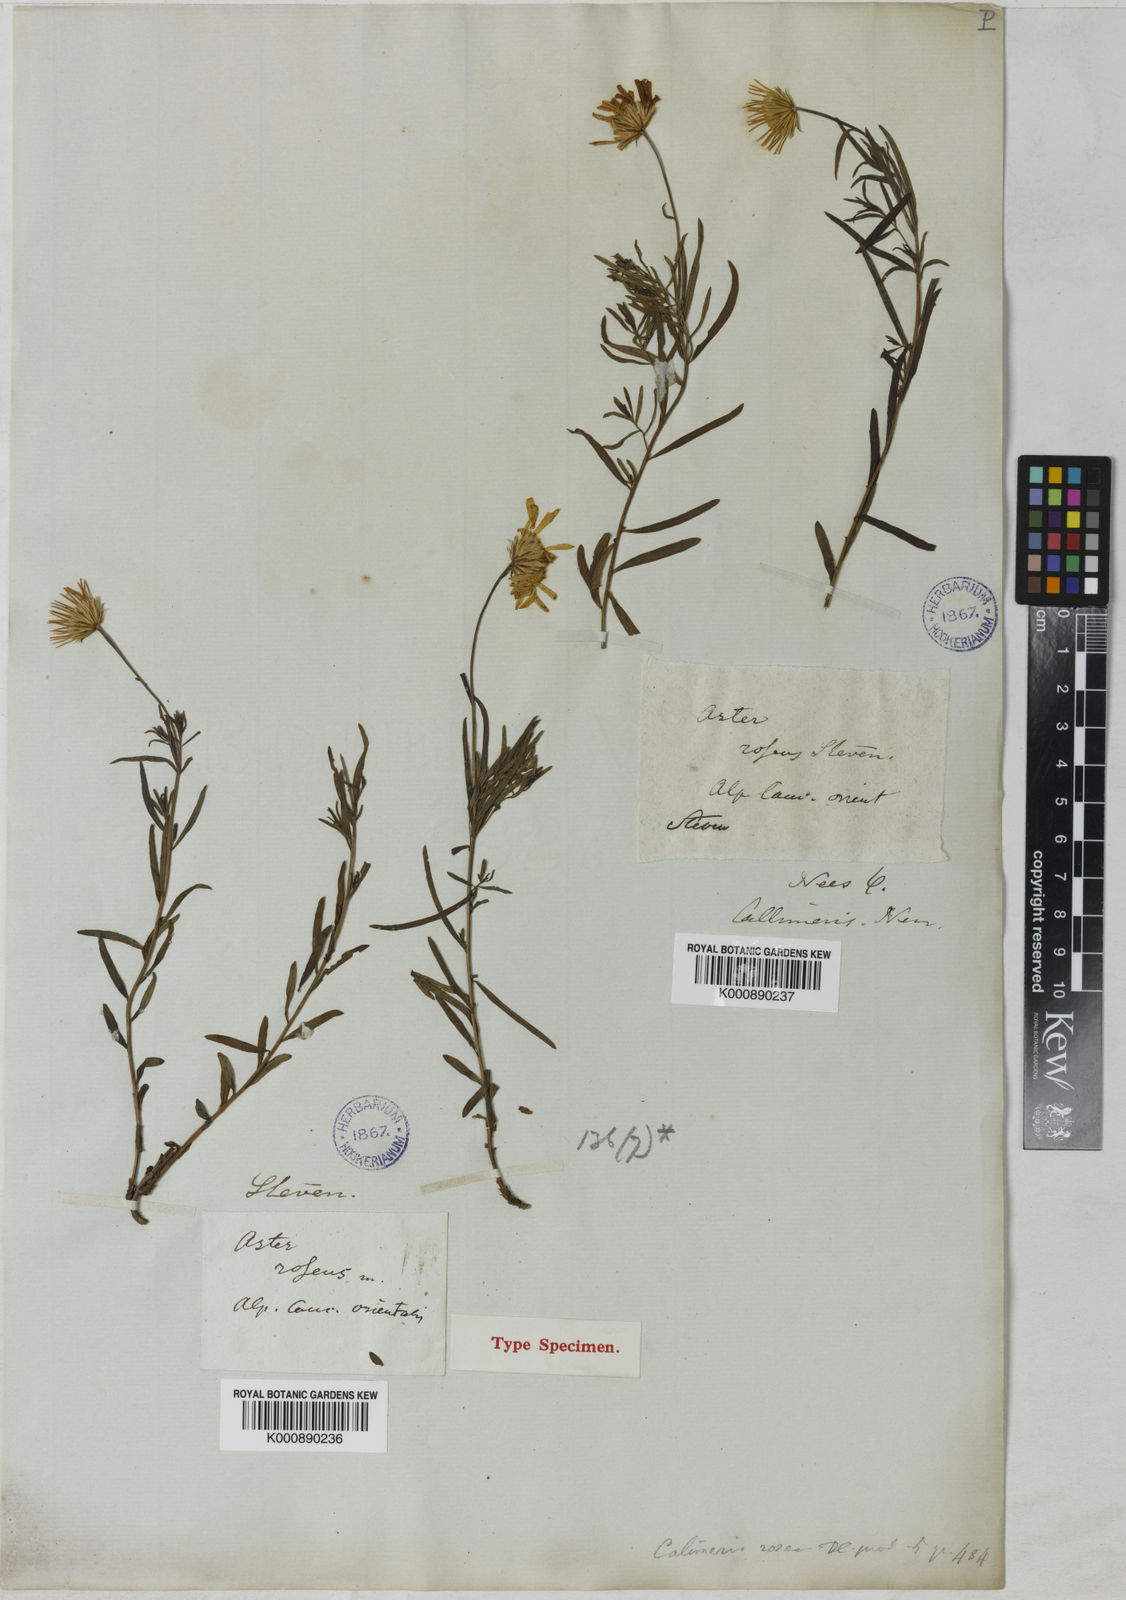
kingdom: Plantae
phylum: Tracheophyta
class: Magnoliopsida
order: Asterales
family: Asteraceae
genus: Symphyotrichum
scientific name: Symphyotrichum novae-angliae
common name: Michaelmas daisy
